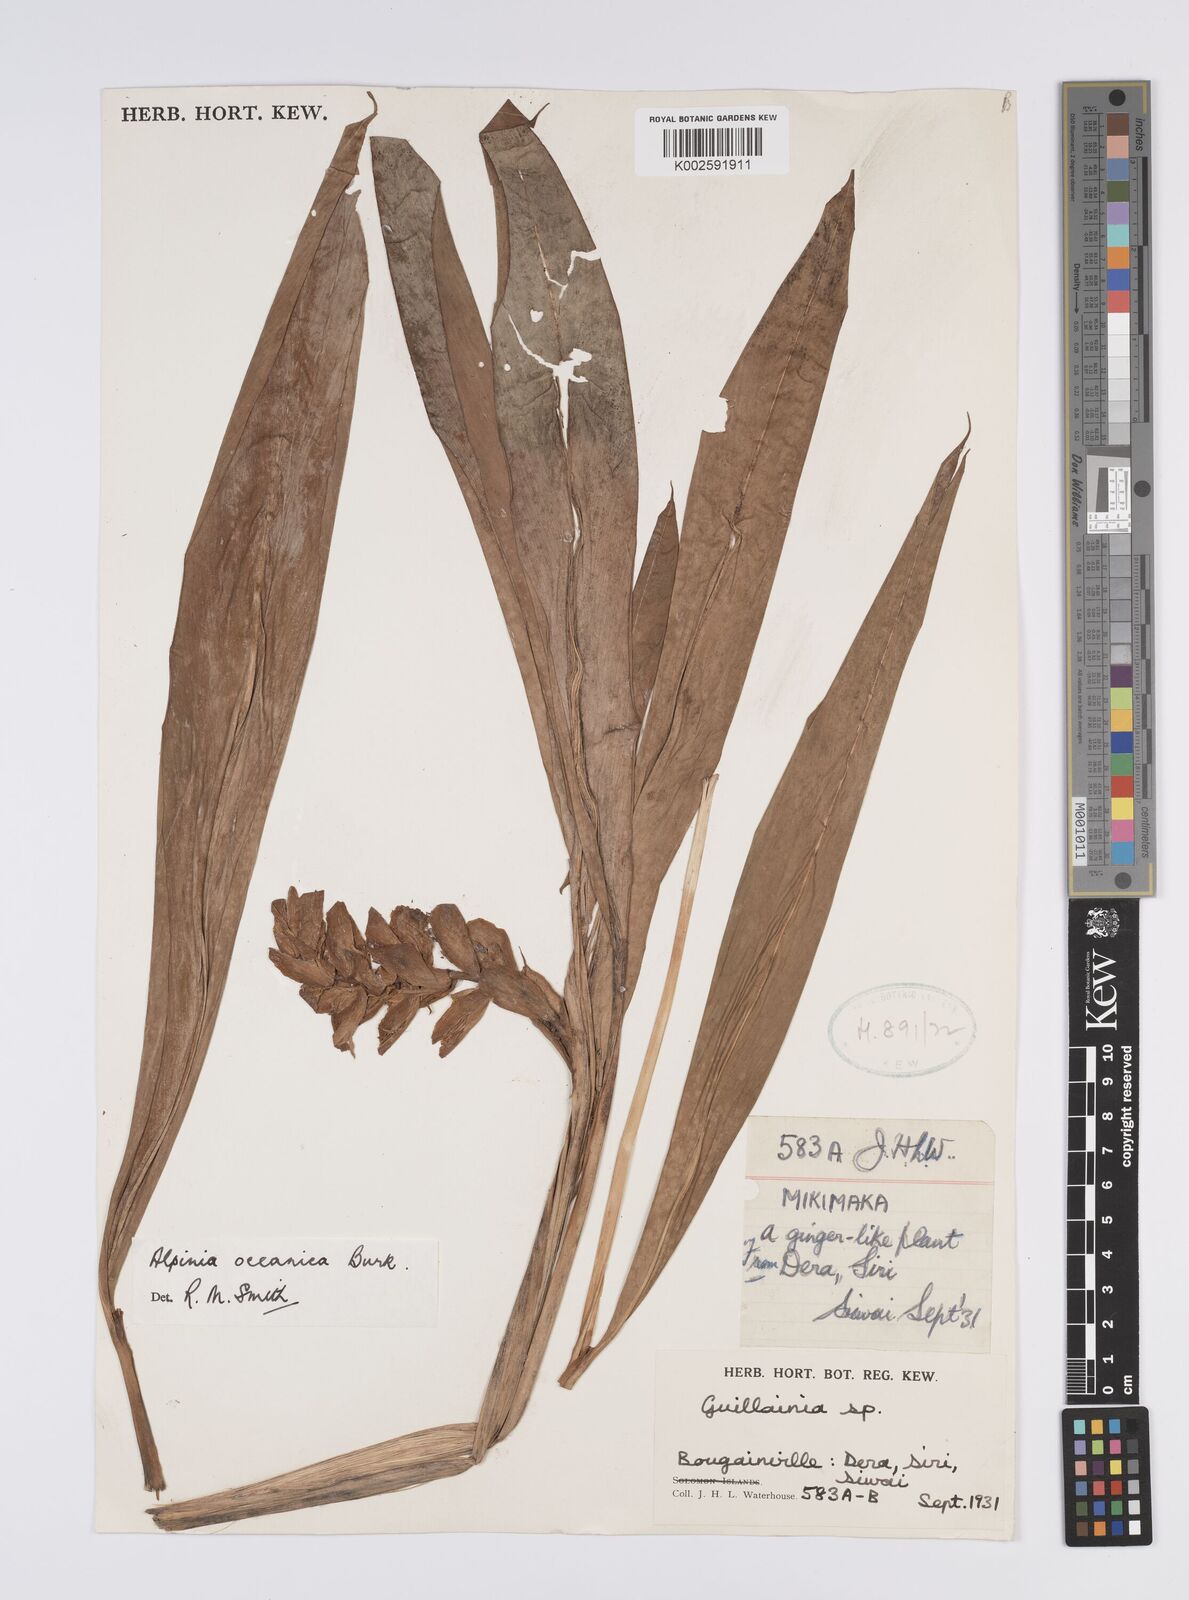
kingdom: Plantae
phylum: Tracheophyta
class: Liliopsida
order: Zingiberales
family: Zingiberaceae
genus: Alpinia
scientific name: Alpinia oceanica
